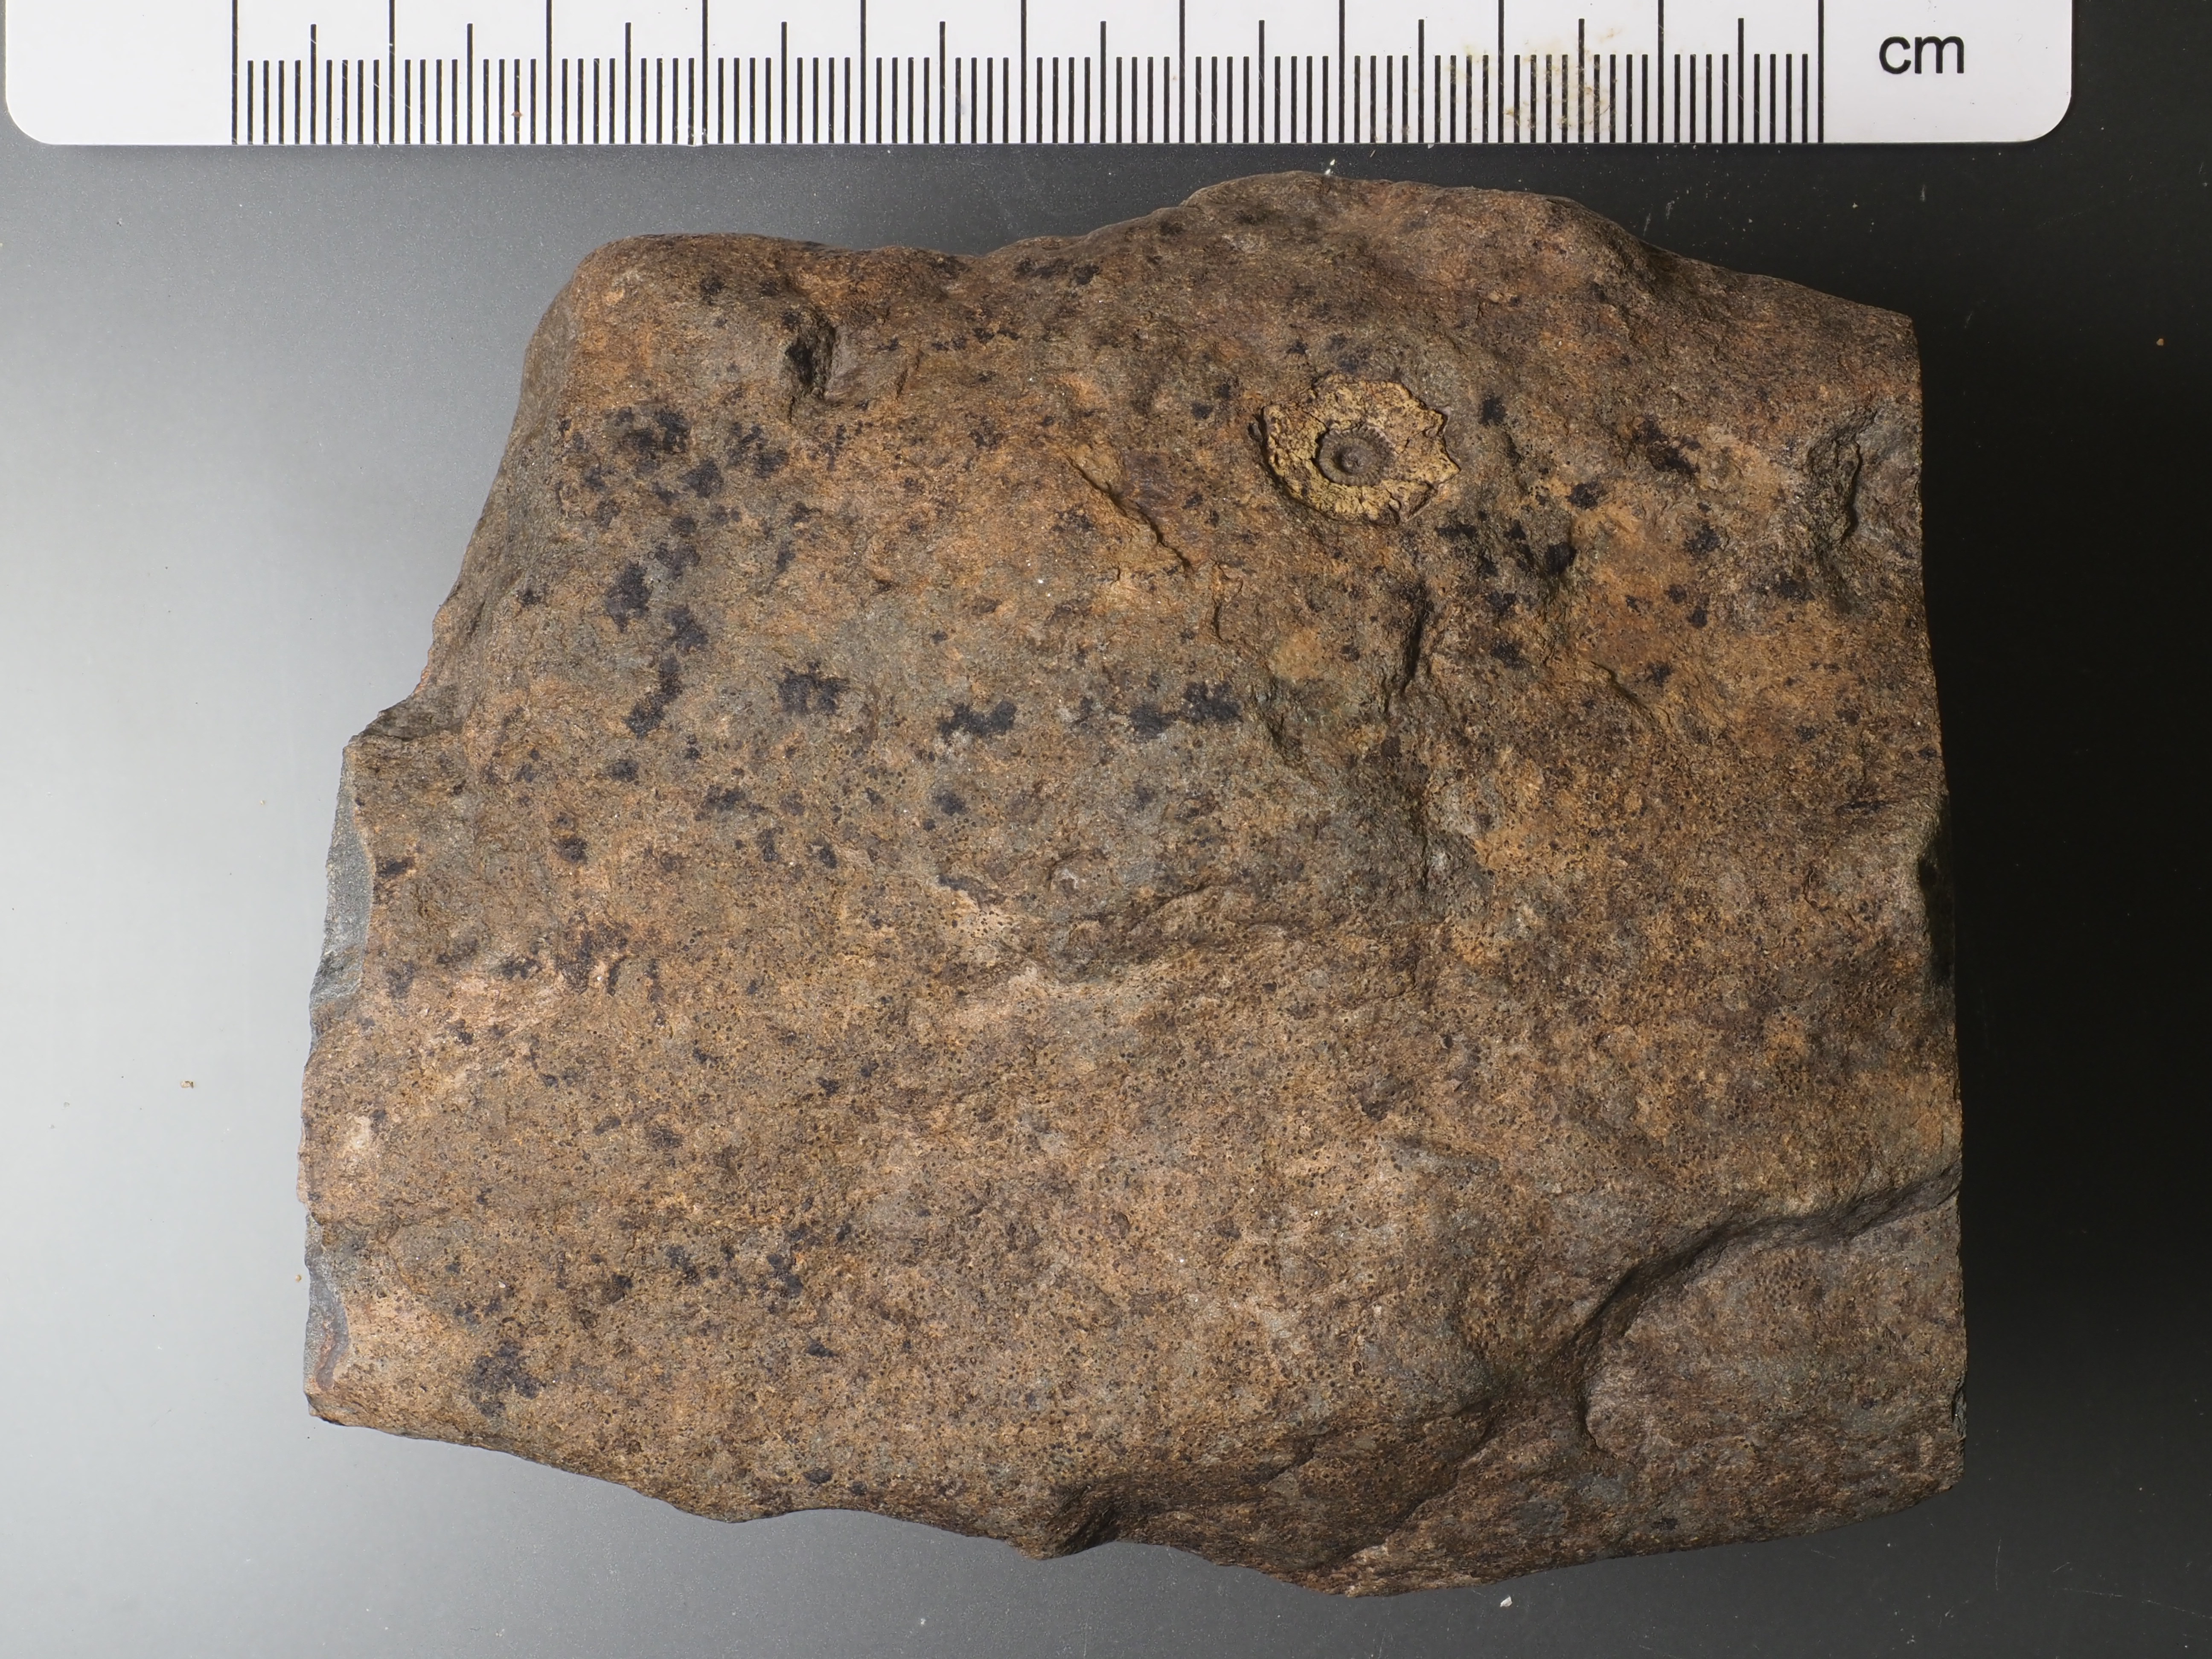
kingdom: Animalia
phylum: Echinodermata
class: Crinoidea
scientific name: Crinoidea
